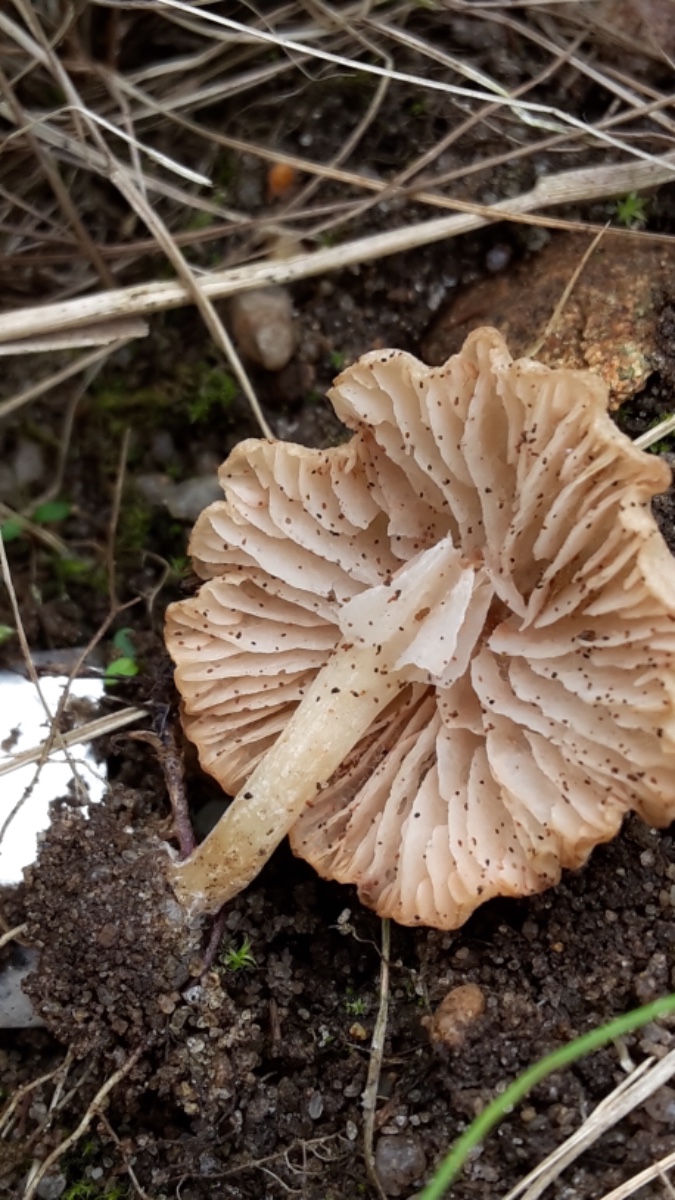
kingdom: Fungi
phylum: Basidiomycota
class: Agaricomycetes
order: Agaricales
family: Entolomataceae
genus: Entoloma
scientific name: Entoloma
